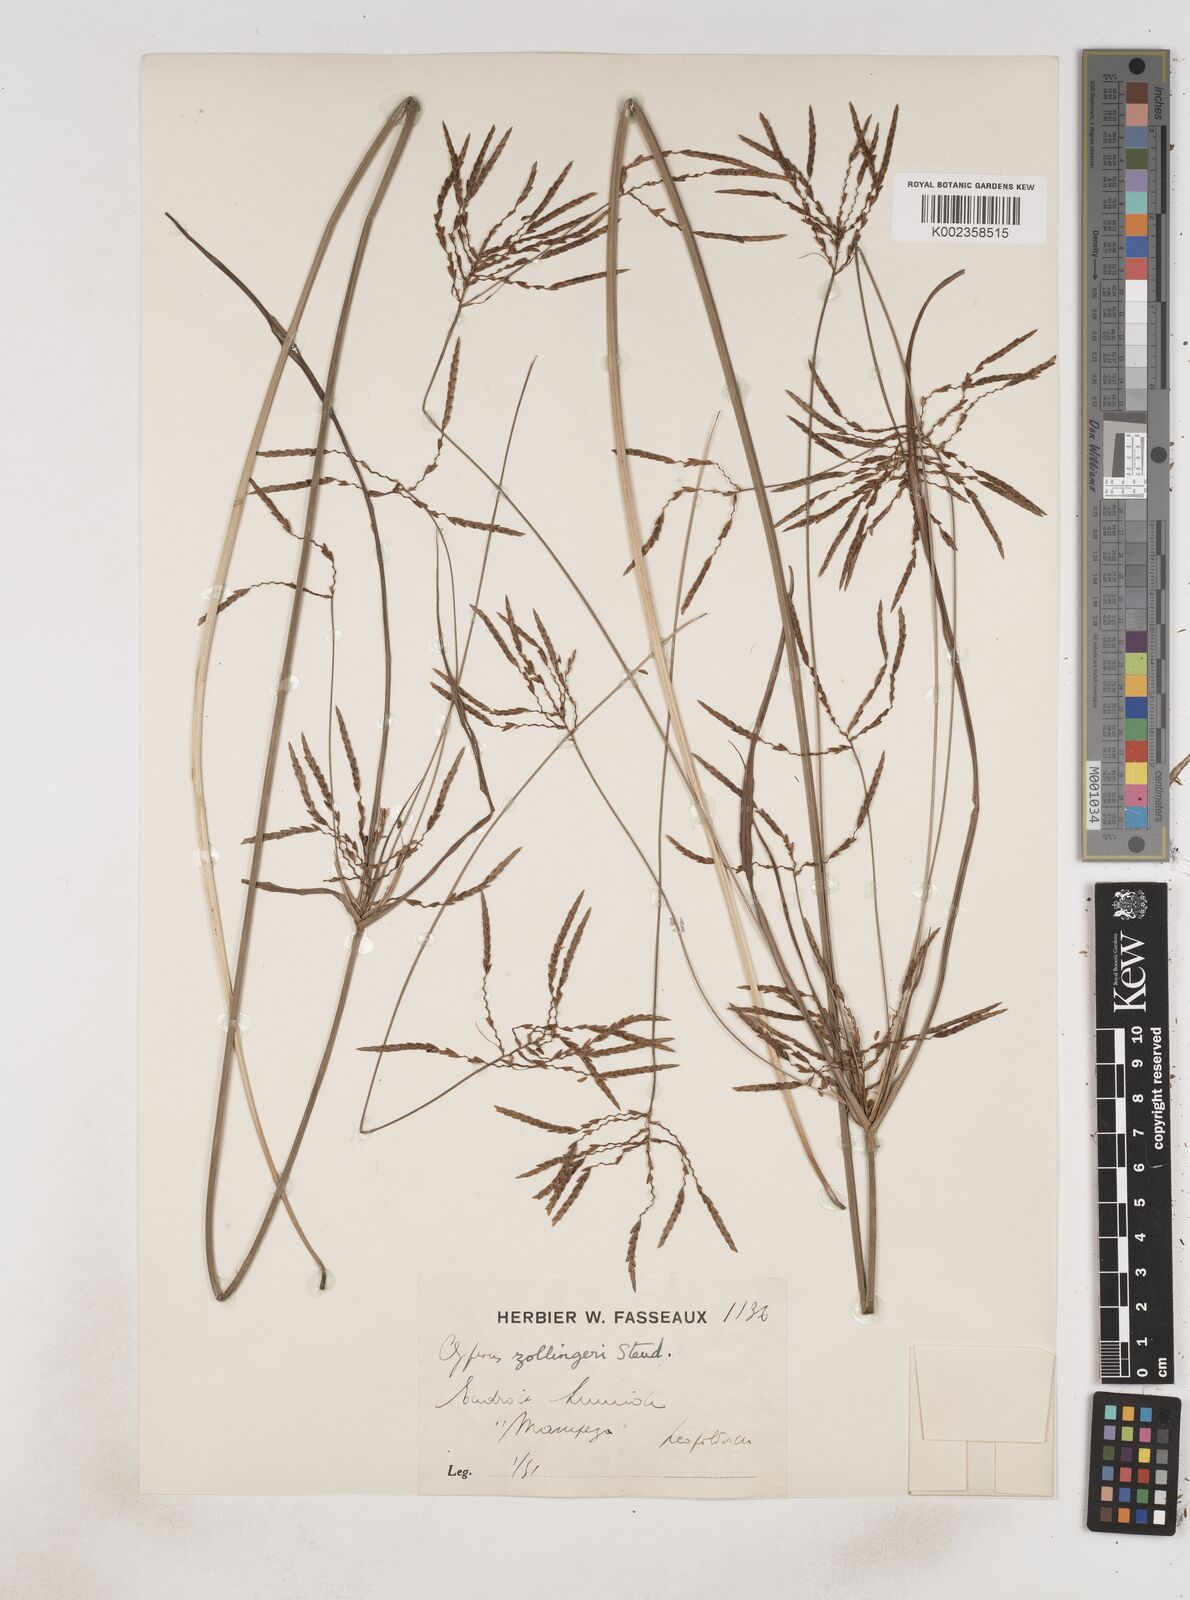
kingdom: Plantae
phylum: Tracheophyta
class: Liliopsida
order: Poales
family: Cyperaceae
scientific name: Cyperaceae
